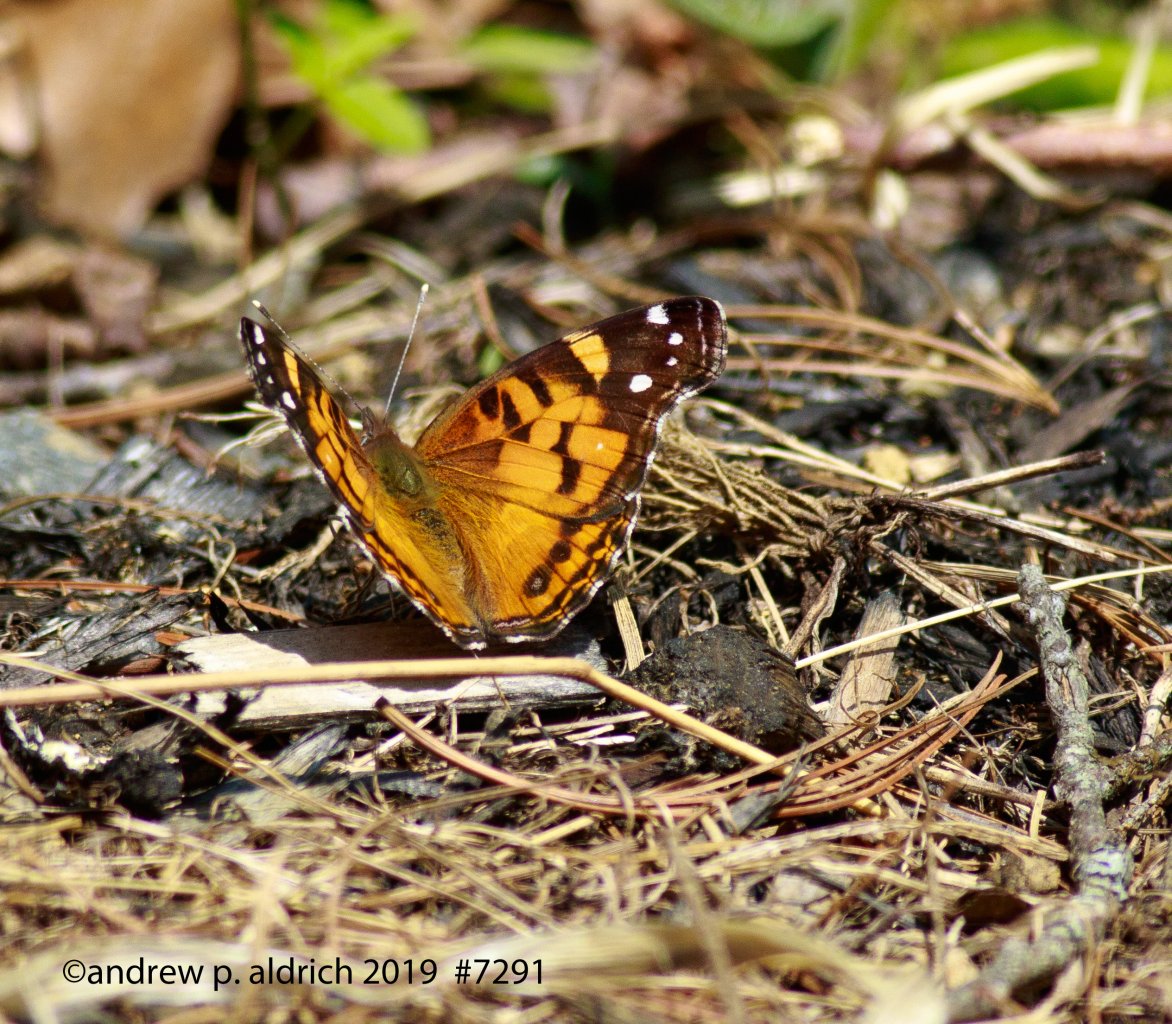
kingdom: Animalia
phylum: Arthropoda
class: Insecta
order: Lepidoptera
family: Nymphalidae
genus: Vanessa
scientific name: Vanessa atalanta
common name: Red Admiral
